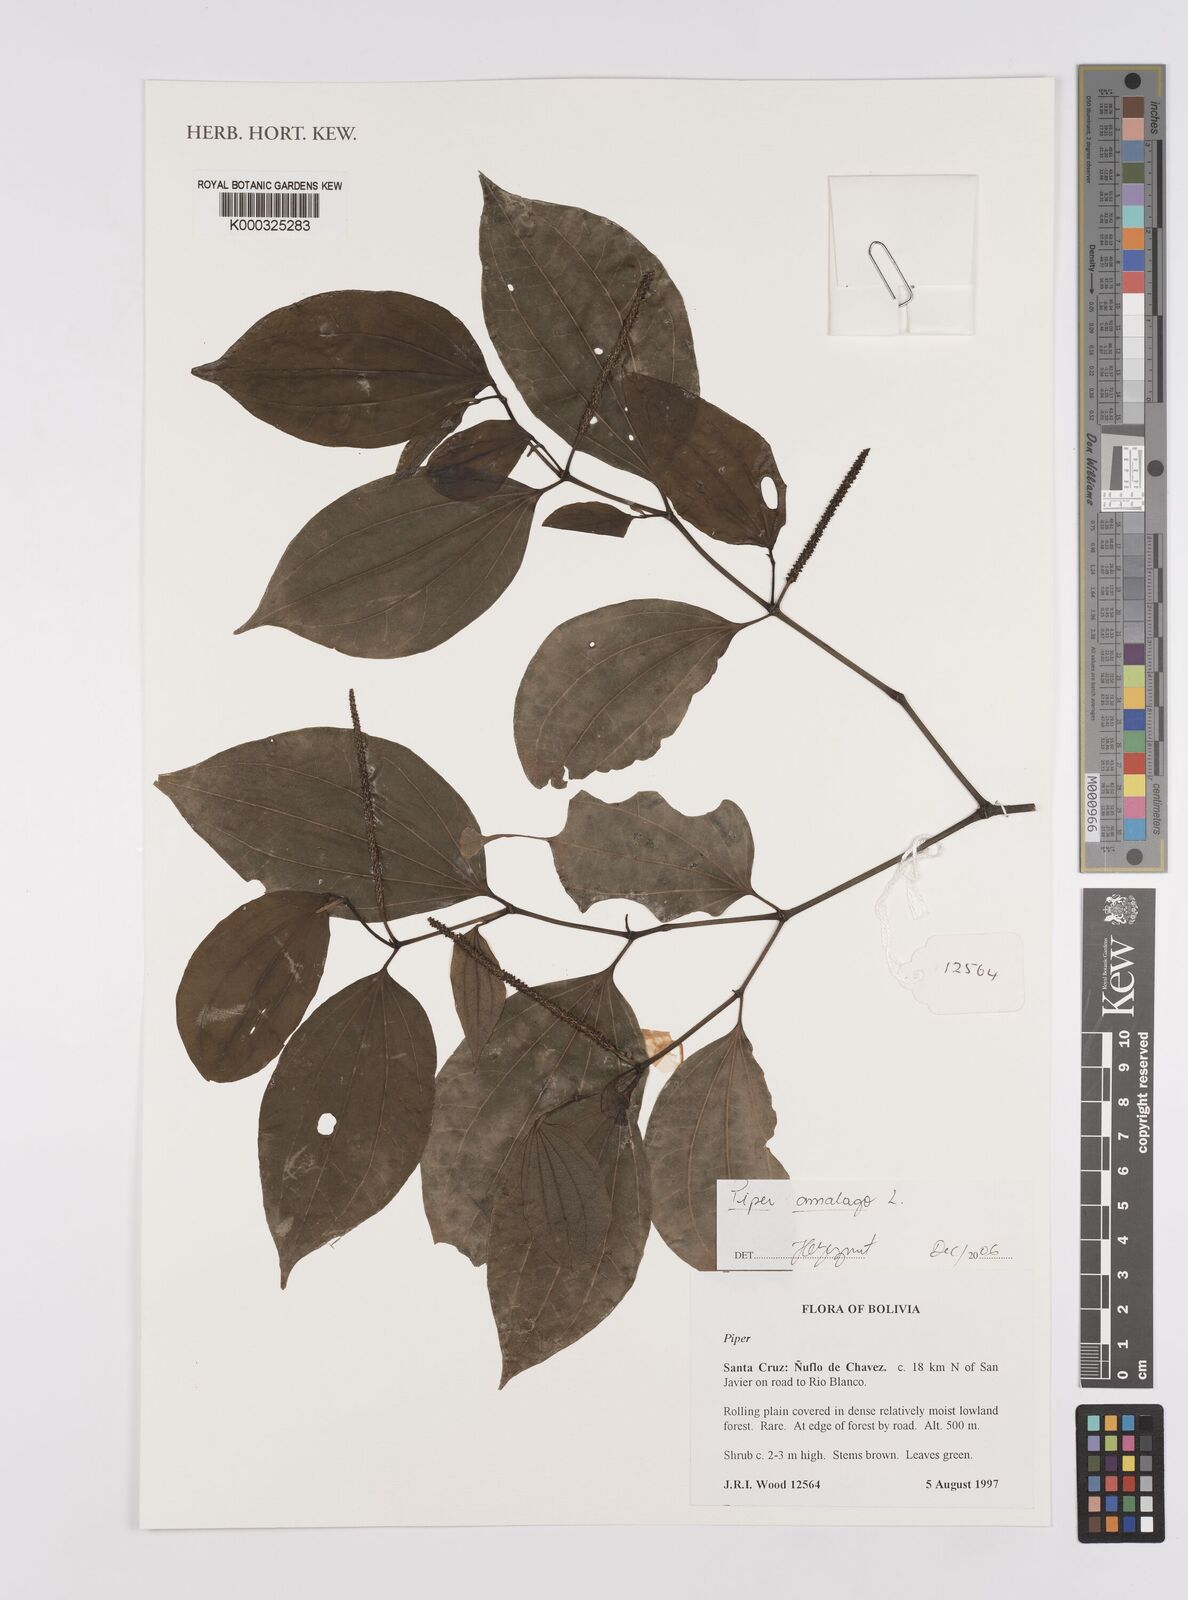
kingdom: Plantae
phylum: Tracheophyta
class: Magnoliopsida
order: Piperales
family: Piperaceae
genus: Piper
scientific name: Piper amalago
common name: Pepper-elder
